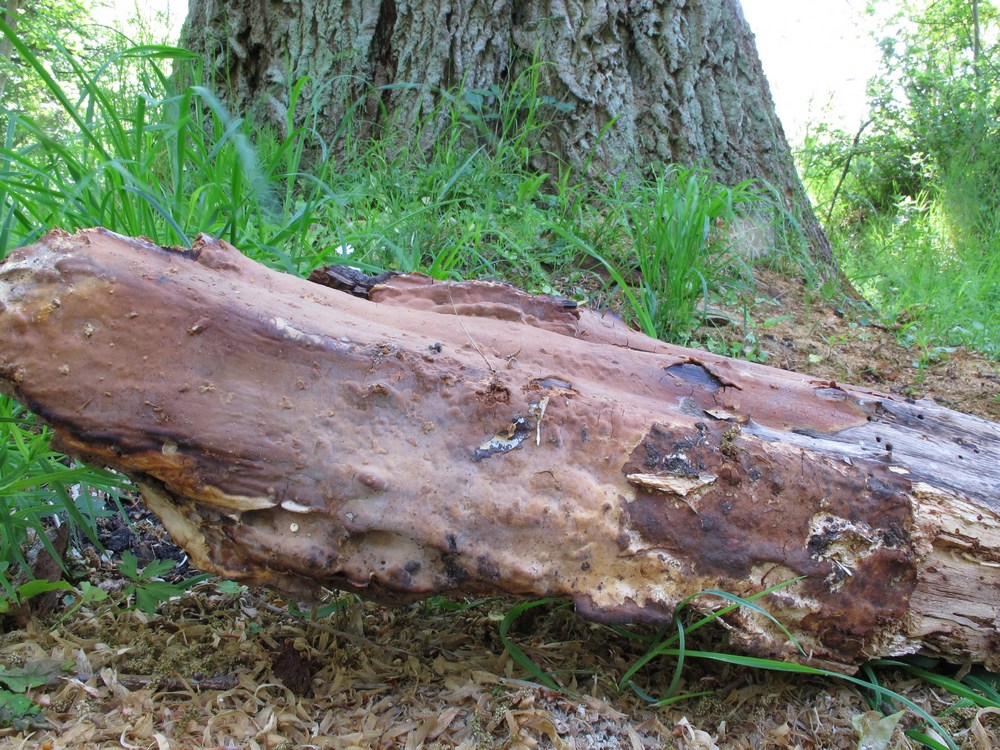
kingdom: Fungi
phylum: Basidiomycota
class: Agaricomycetes
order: Russulales
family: Peniophoraceae
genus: Scytinostroma
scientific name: Scytinostroma hemidichophyticum
